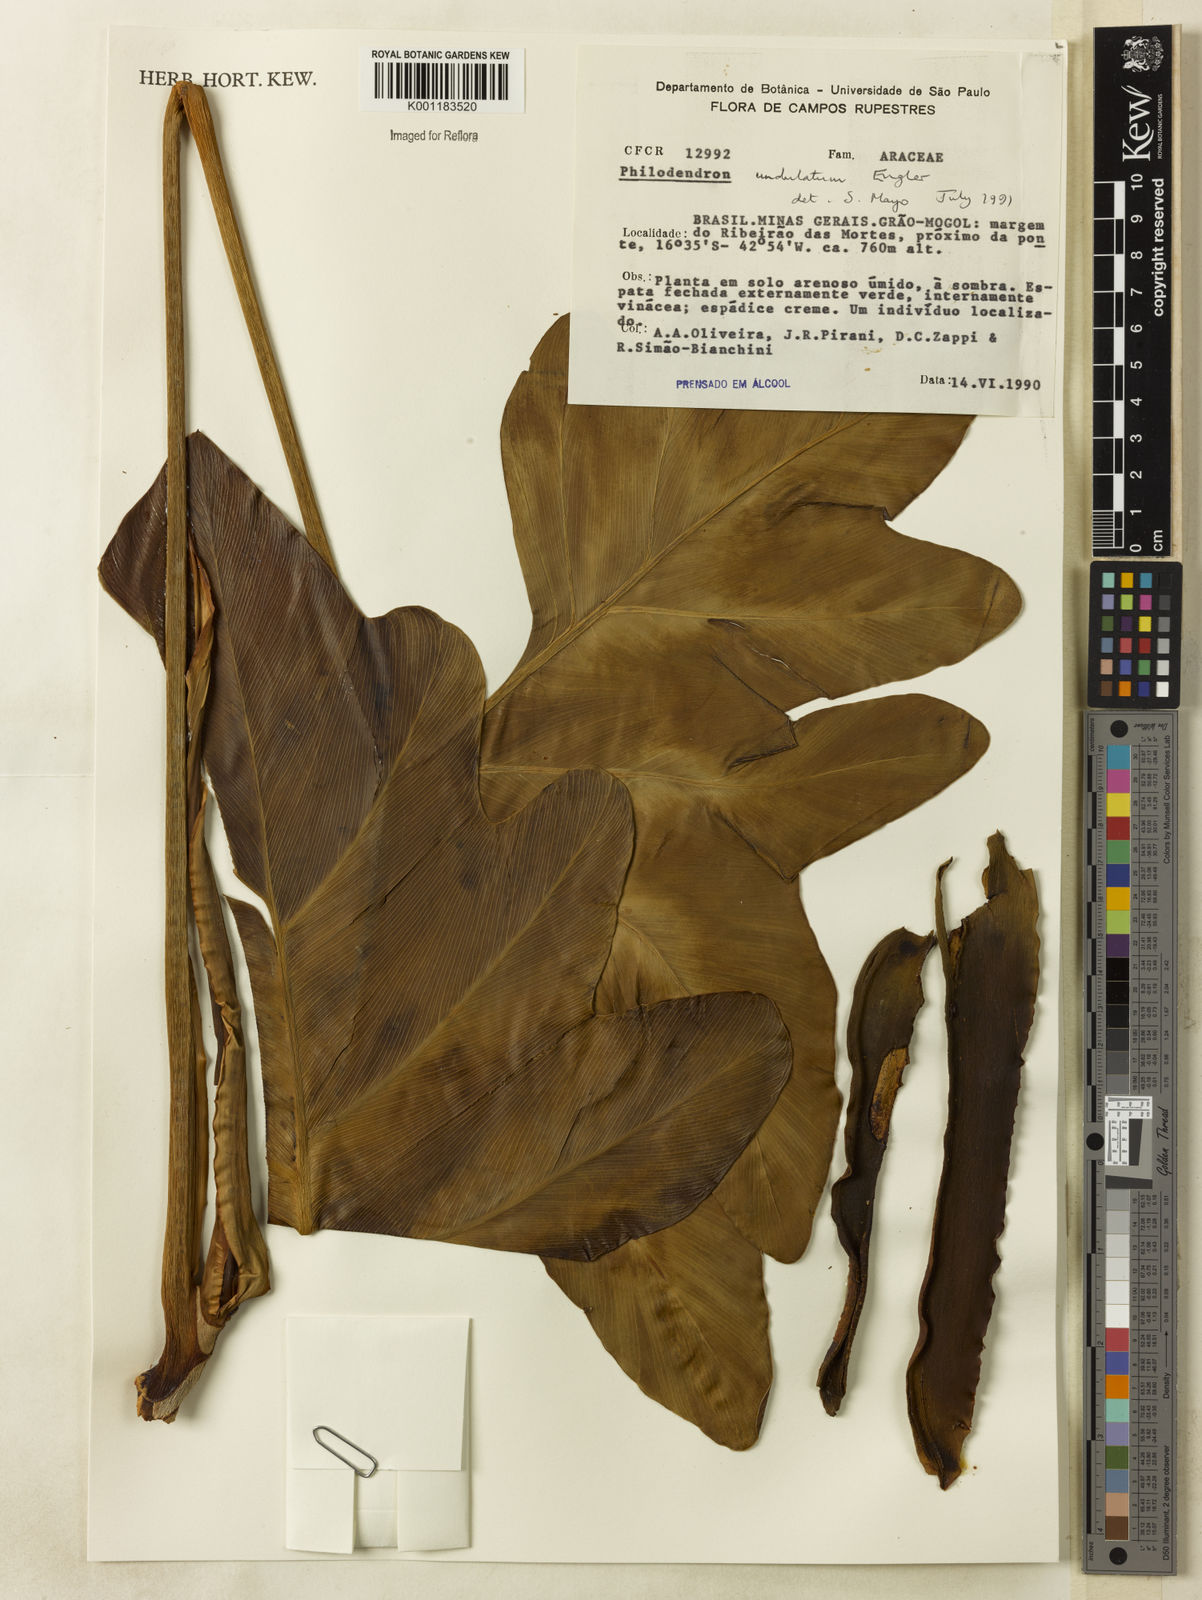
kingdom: Plantae
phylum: Tracheophyta
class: Liliopsida
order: Alismatales
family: Araceae
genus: Thaumatophyllum
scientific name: Thaumatophyllum undulatum
